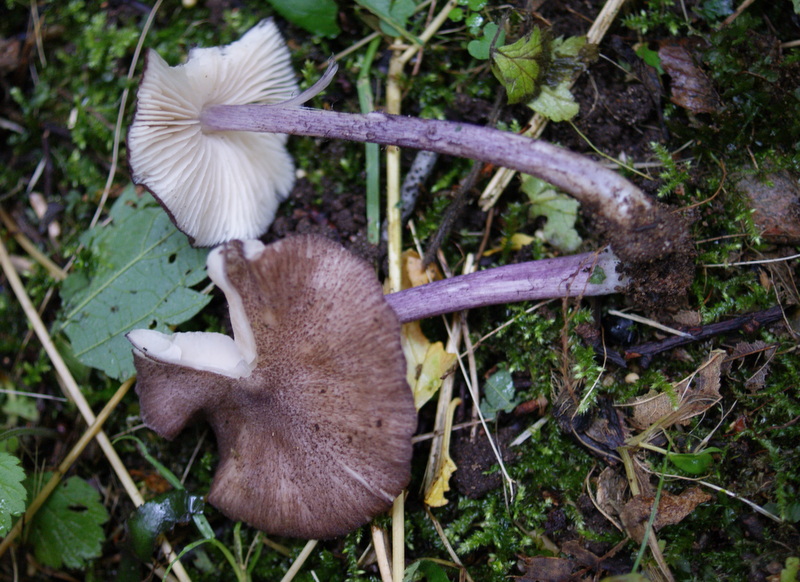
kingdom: Fungi
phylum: Basidiomycota
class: Agaricomycetes
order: Agaricales
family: Entolomataceae
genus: Entoloma
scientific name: Entoloma allochroum
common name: Rødviolet rødblad
